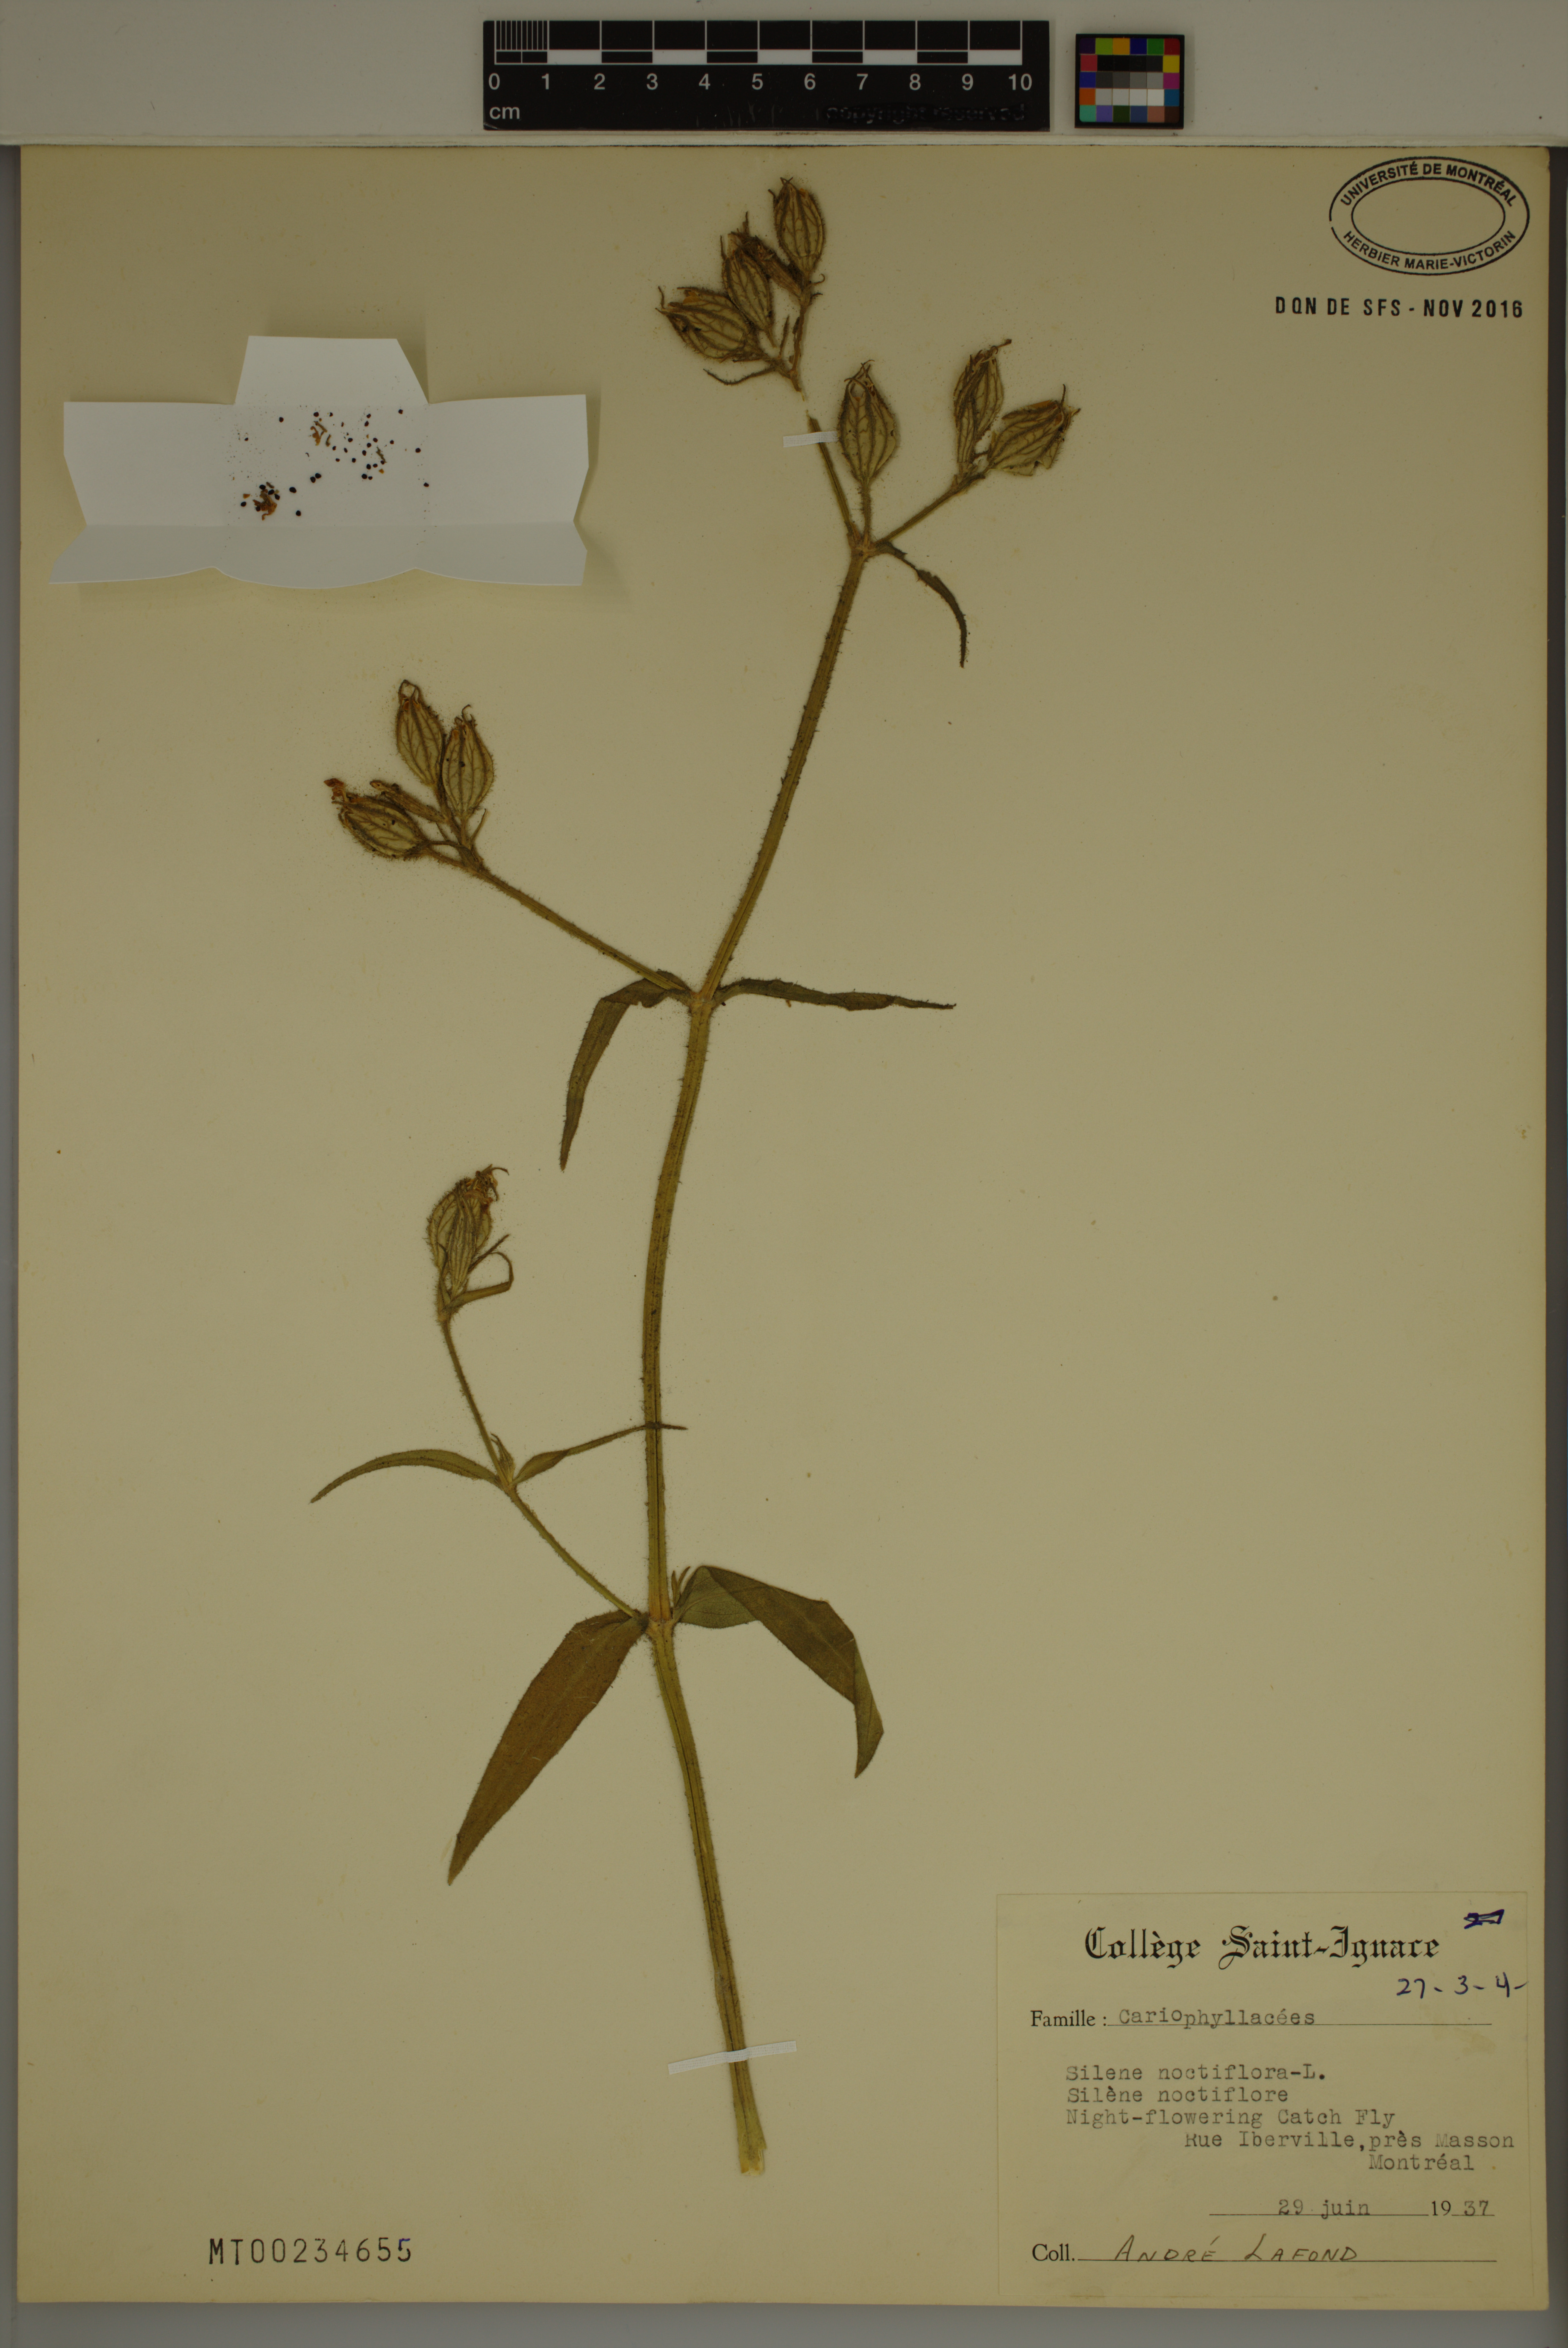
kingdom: Plantae
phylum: Tracheophyta
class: Magnoliopsida
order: Caryophyllales
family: Caryophyllaceae
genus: Silene
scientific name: Silene noctiflora
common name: Night-flowering catchfly
